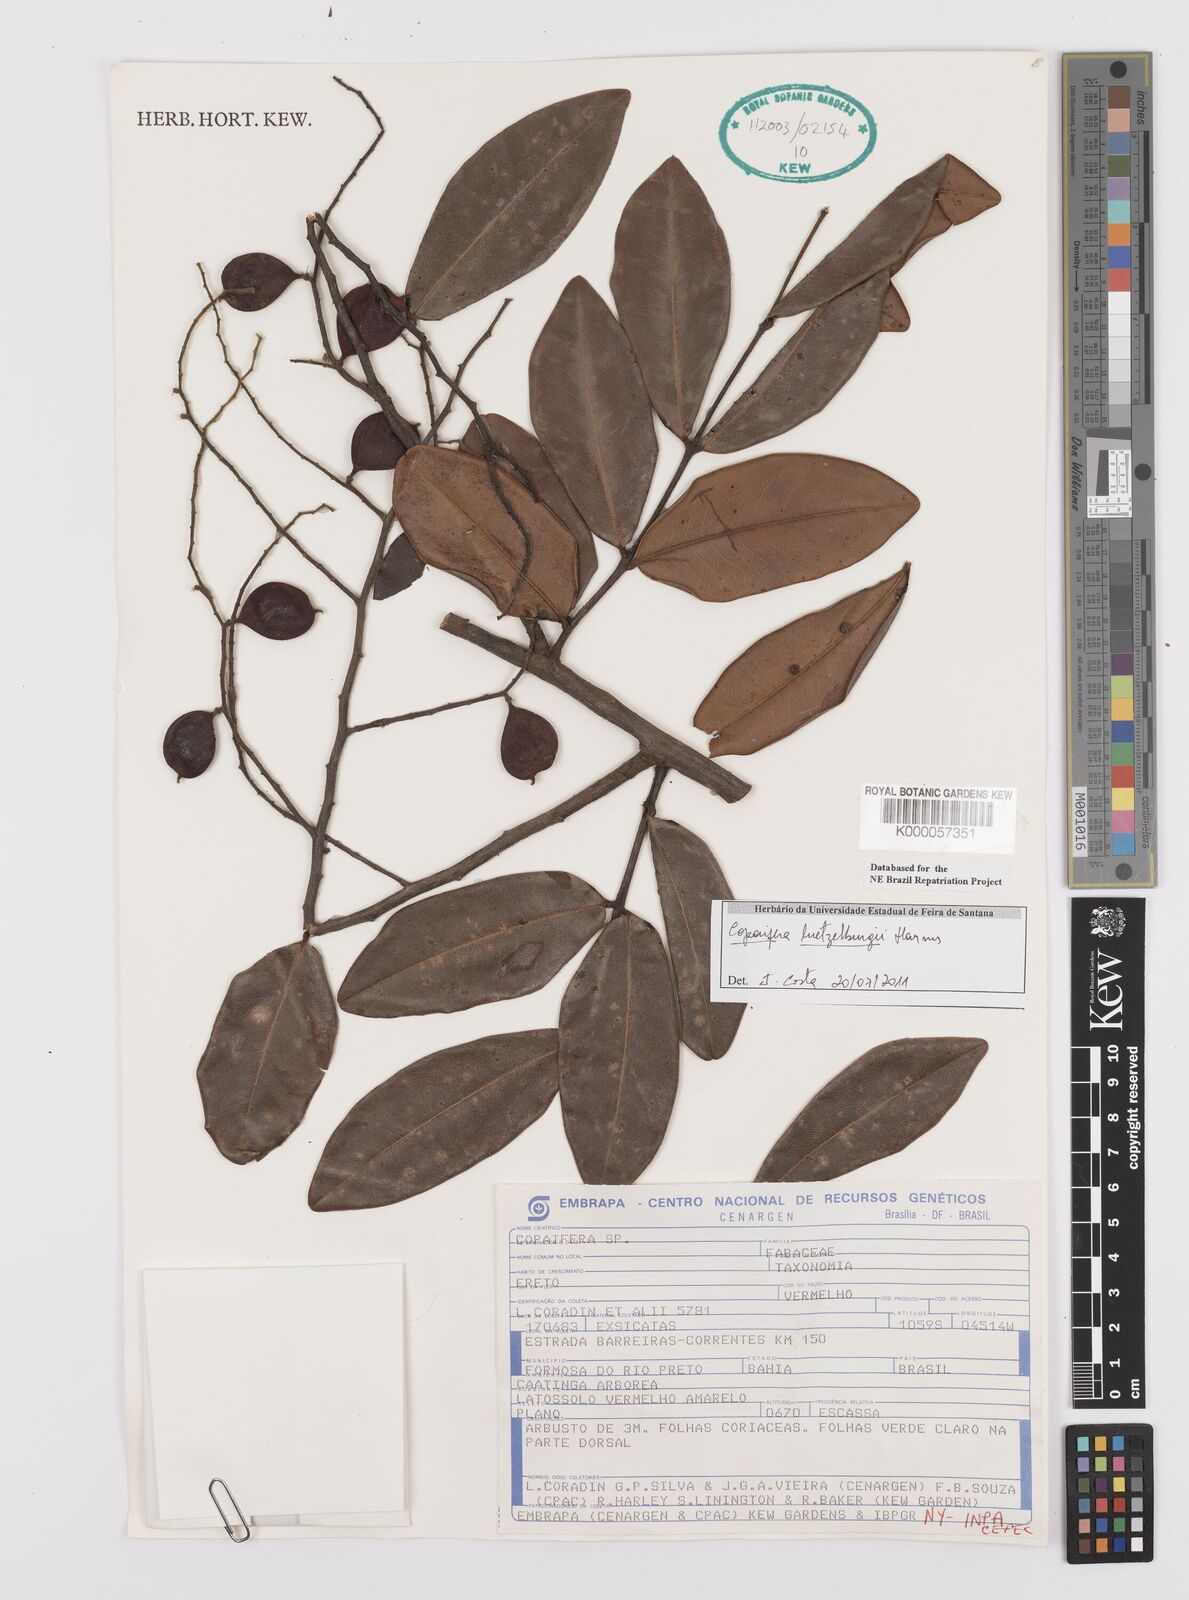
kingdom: Plantae
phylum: Tracheophyta
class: Magnoliopsida
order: Fabales
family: Fabaceae
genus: Copaifera
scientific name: Copaifera luetzelburgii
